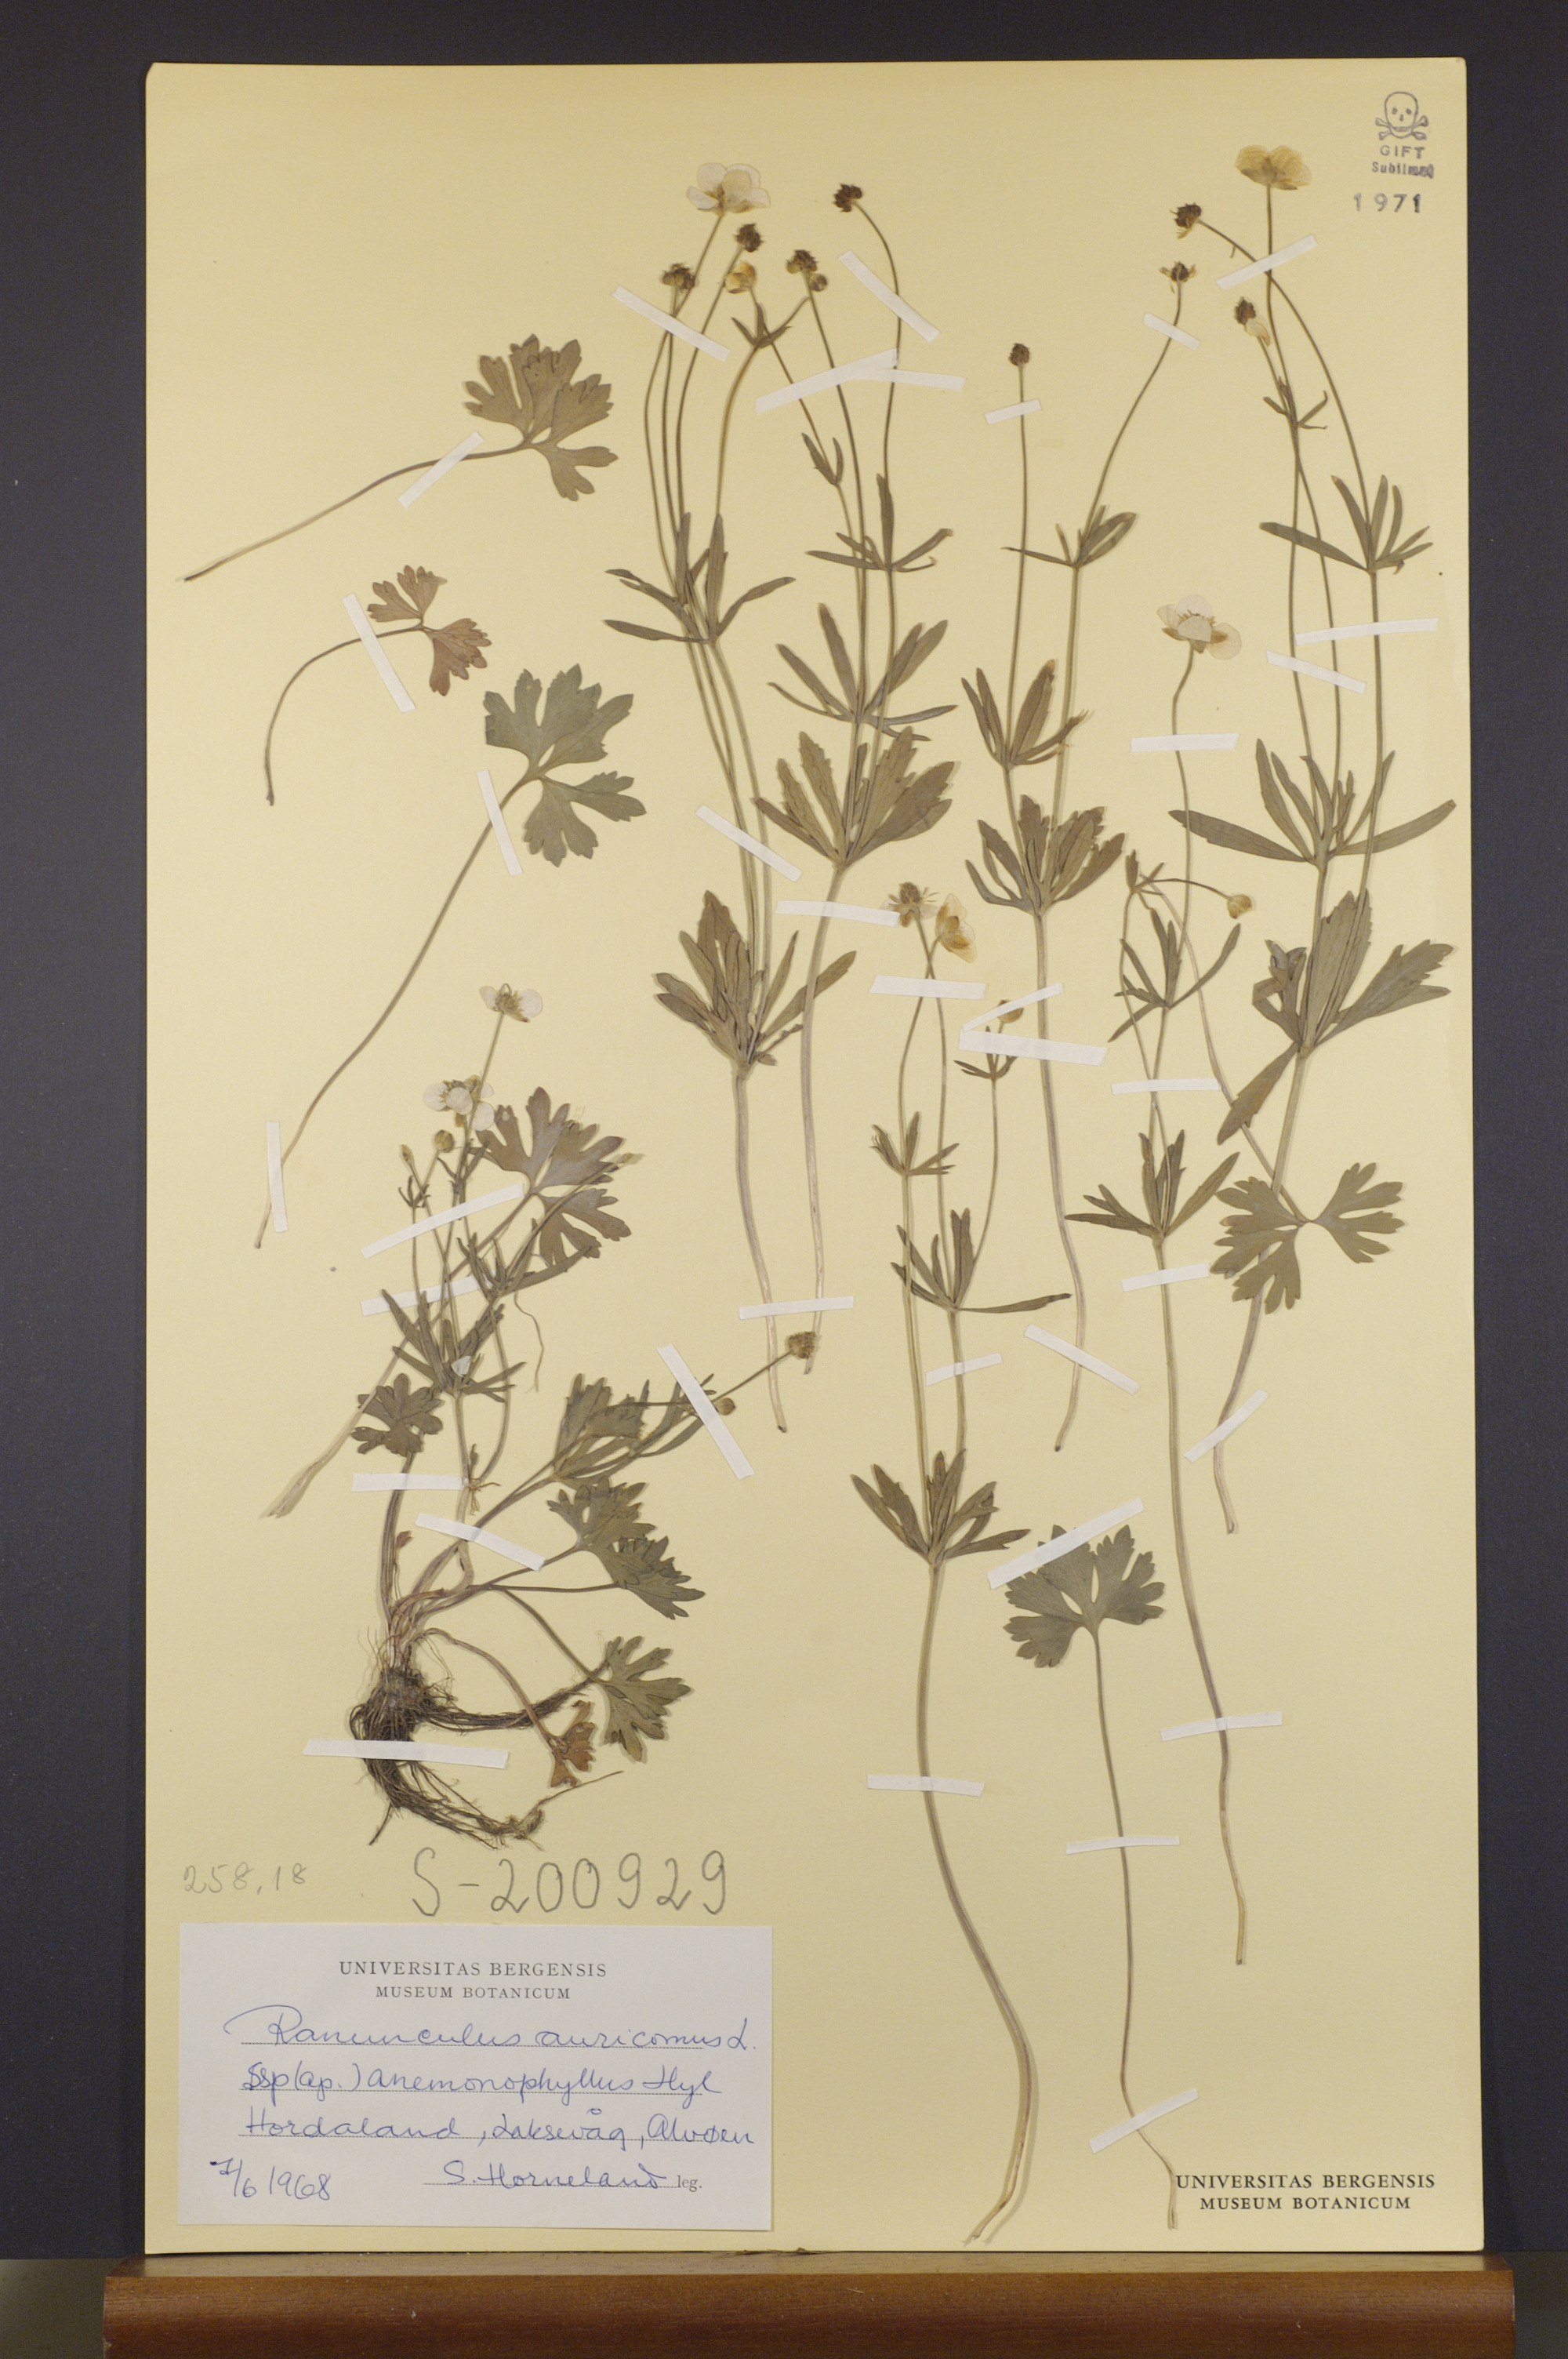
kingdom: Plantae
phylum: Tracheophyta
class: Magnoliopsida
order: Ranunculales
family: Ranunculaceae
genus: Ranunculus
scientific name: Ranunculus anemonophyllus
